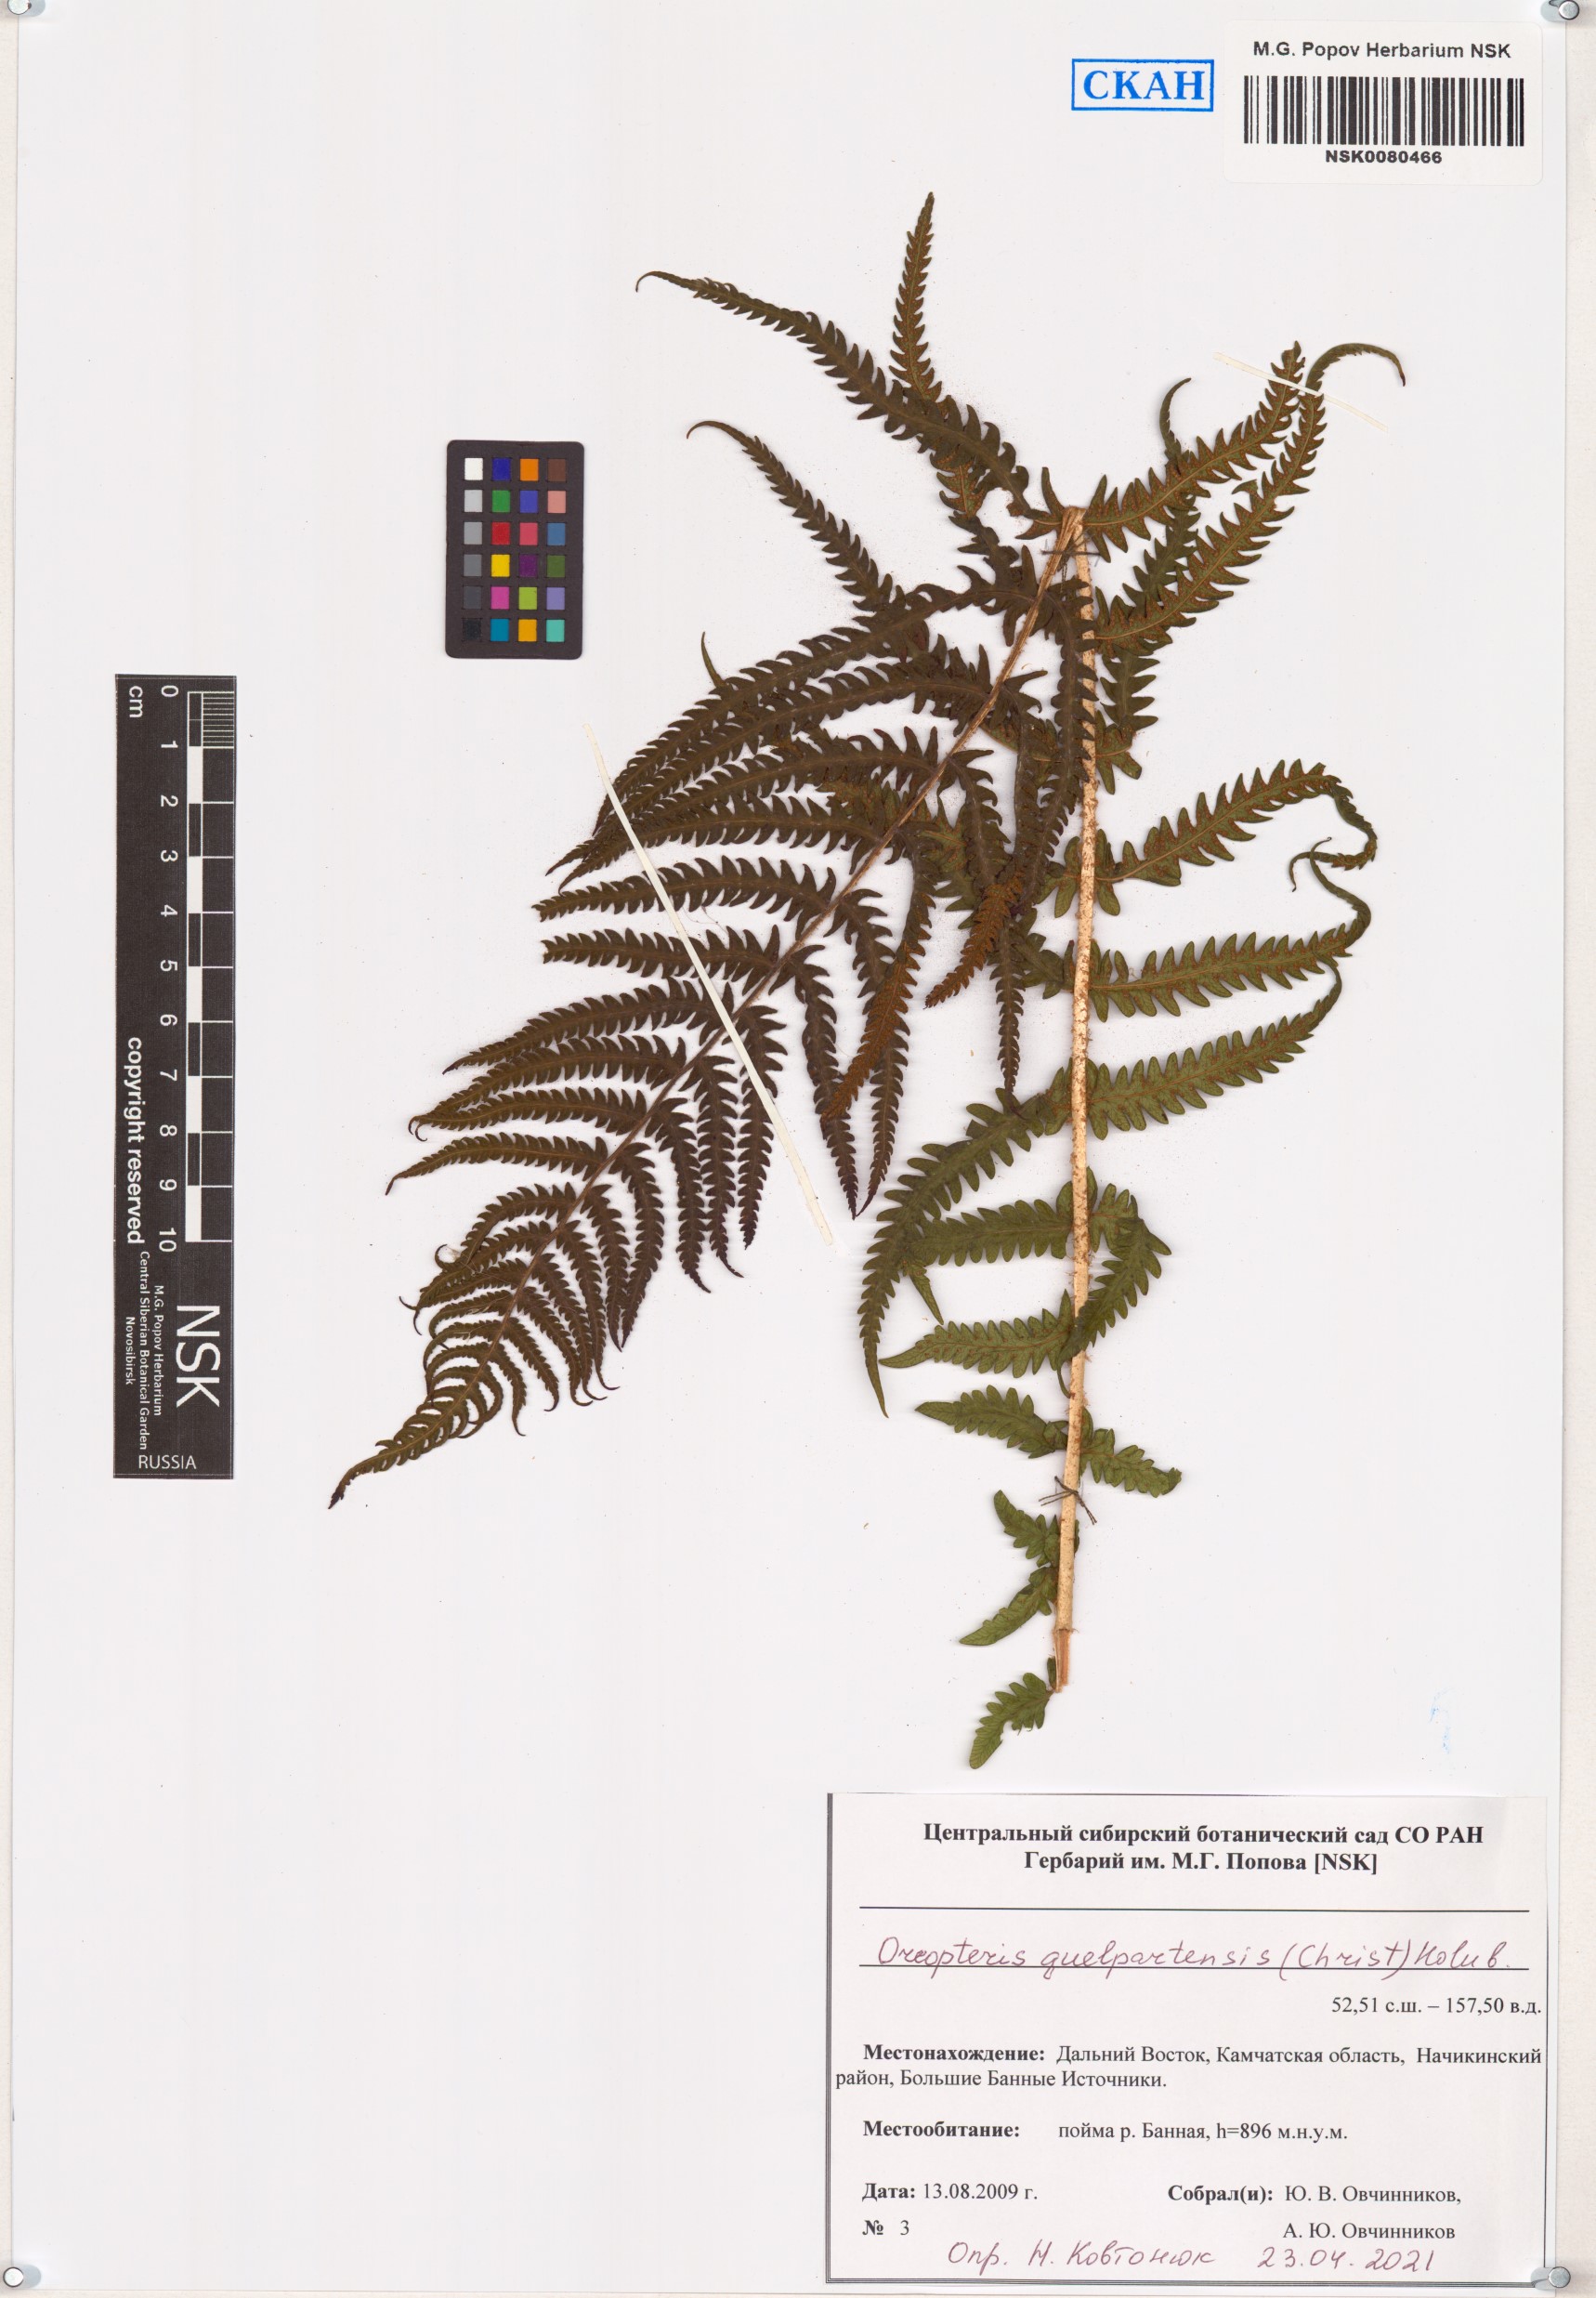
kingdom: Plantae
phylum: Tracheophyta
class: Polypodiopsida
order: Polypodiales
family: Thelypteridaceae
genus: Oreopteris
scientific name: Oreopteris quelpartensis
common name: Mountain fern
